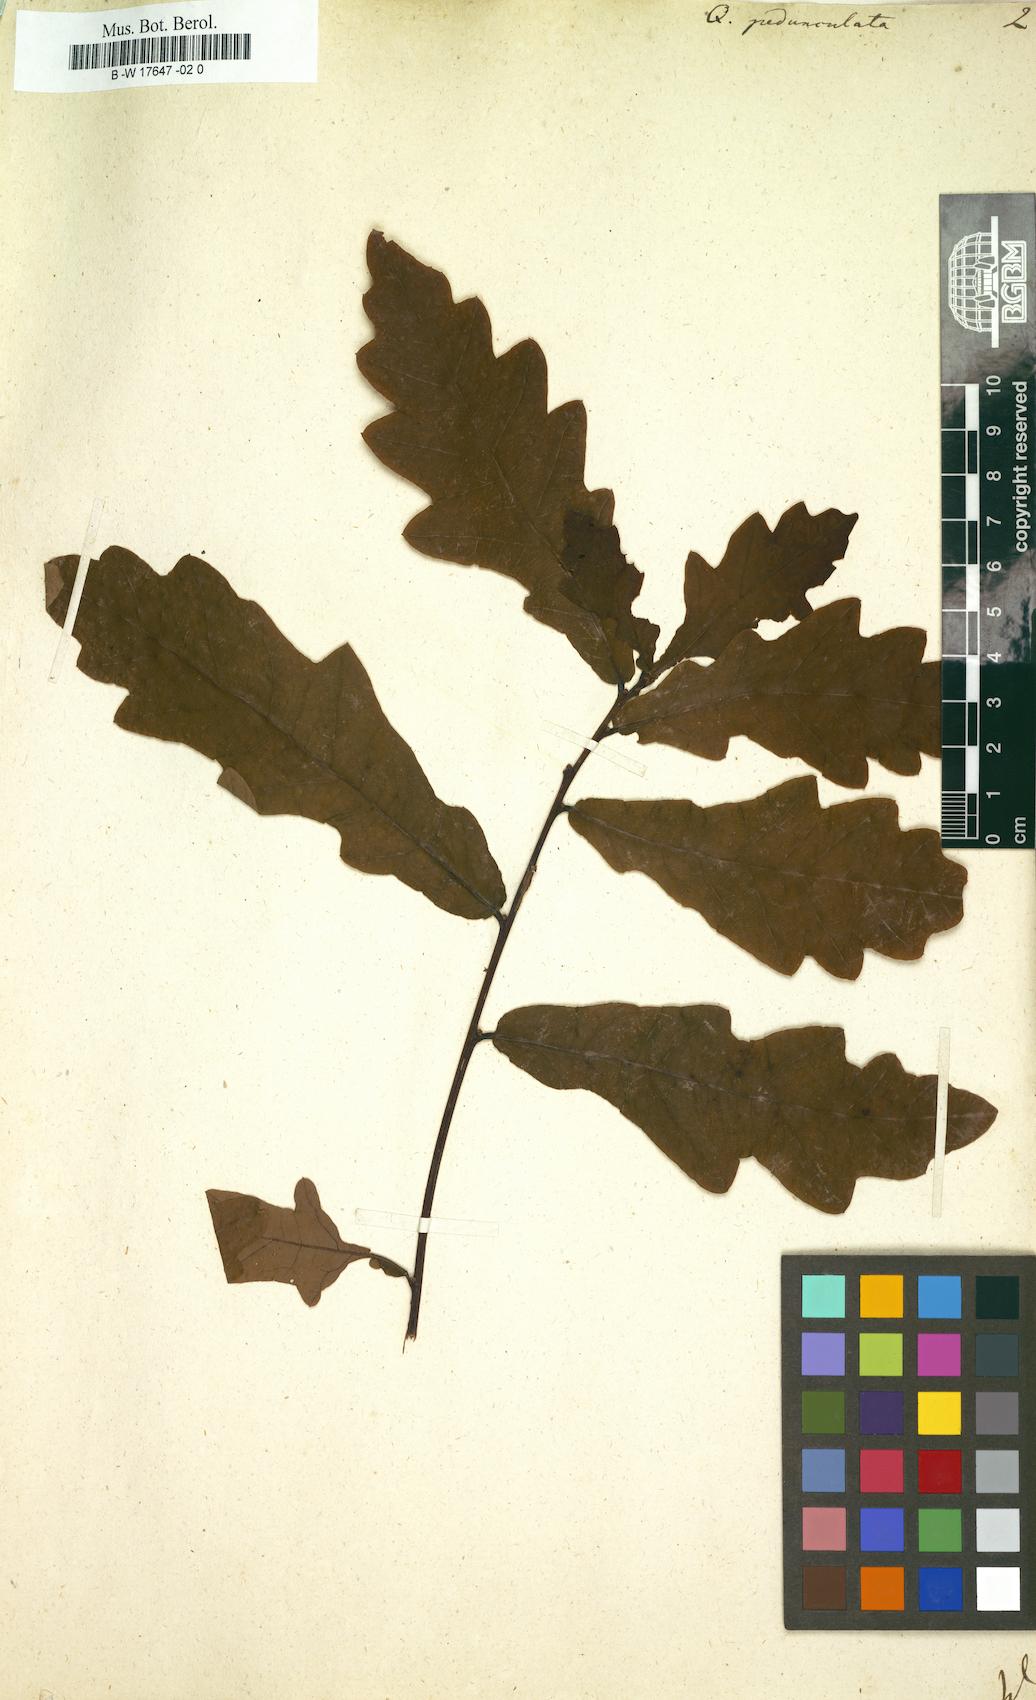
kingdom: Plantae
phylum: Tracheophyta
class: Magnoliopsida
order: Fagales
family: Fagaceae
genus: Quercus
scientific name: Quercus pedunculata
